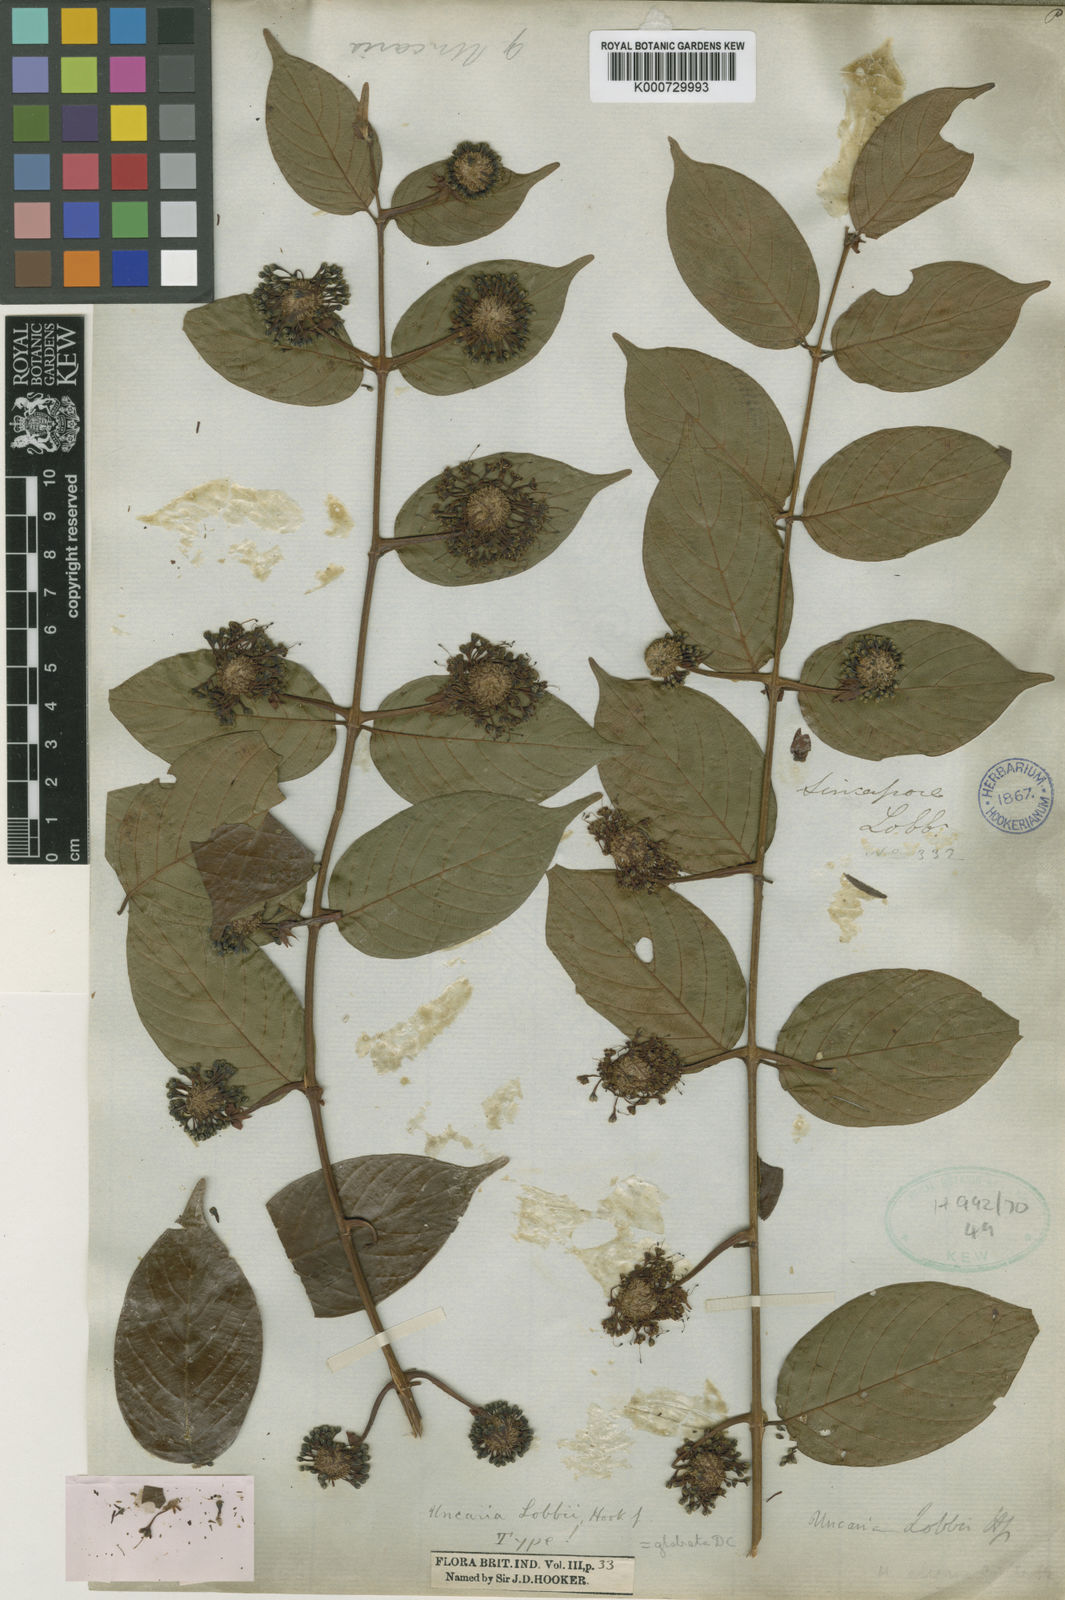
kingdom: Plantae
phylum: Tracheophyta
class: Magnoliopsida
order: Gentianales
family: Rubiaceae
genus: Uncaria
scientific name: Uncaria lanosa
